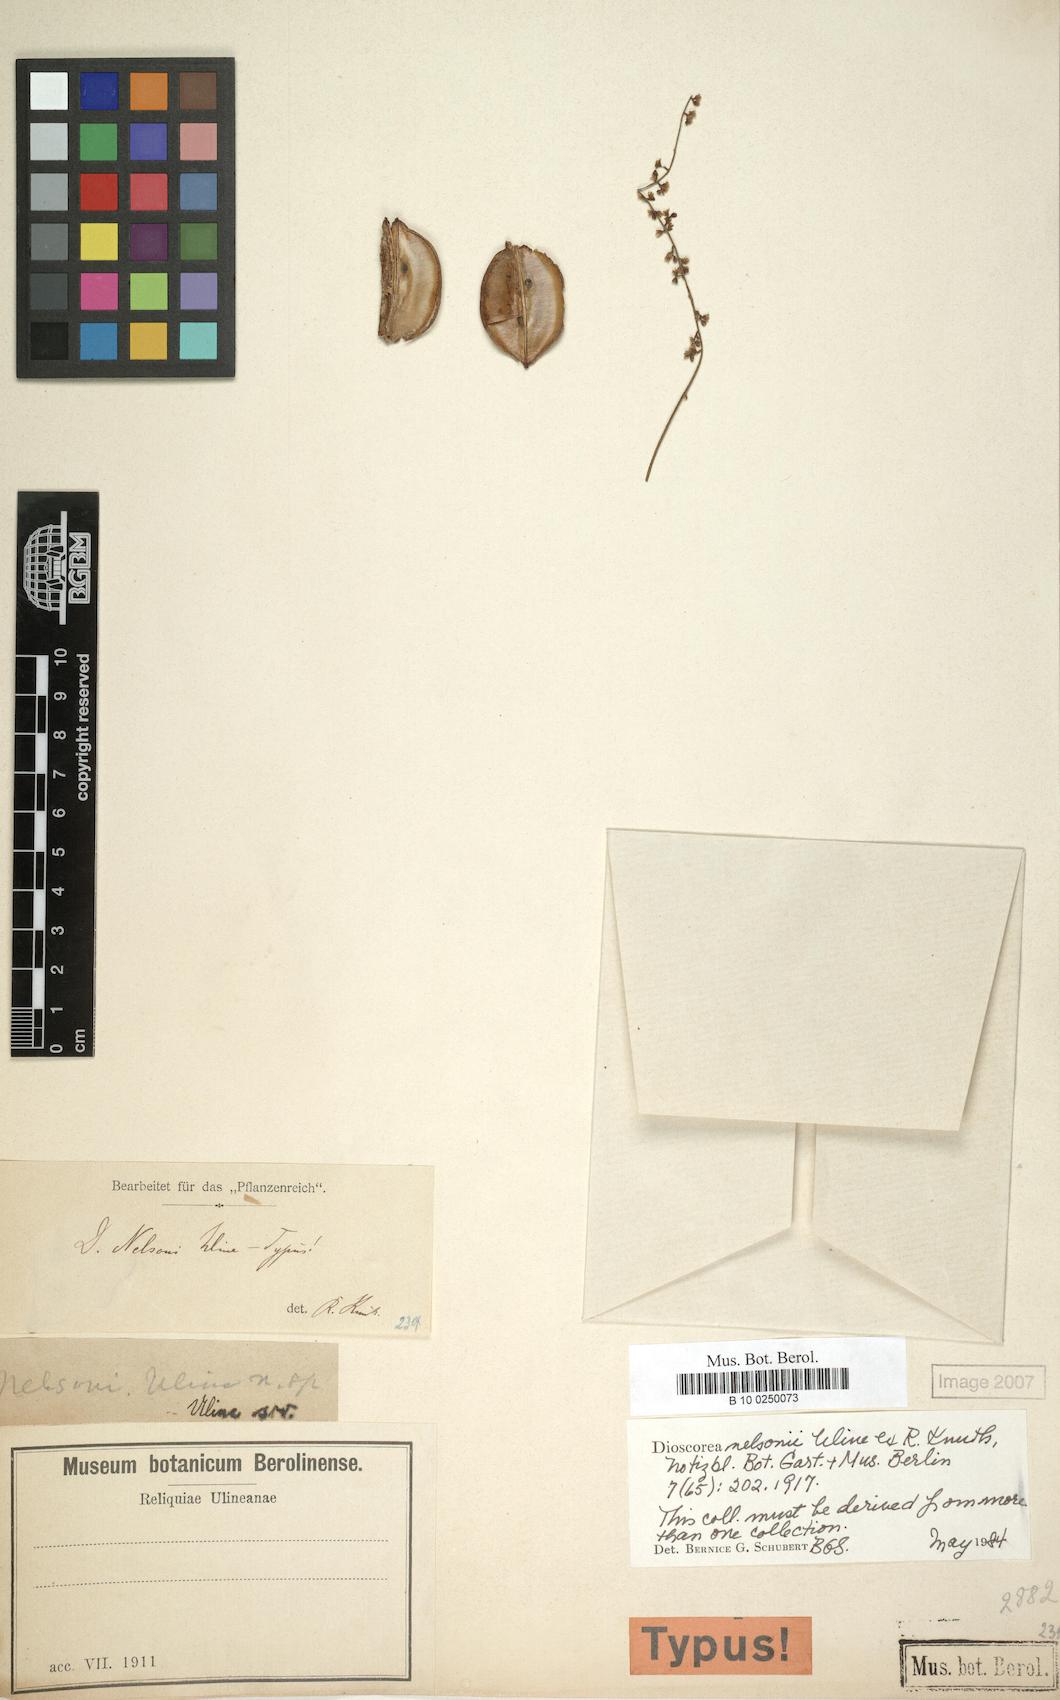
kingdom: Plantae
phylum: Tracheophyta
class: Liliopsida
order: Dioscoreales
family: Dioscoreaceae
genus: Dioscorea
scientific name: Dioscorea nelsonii
